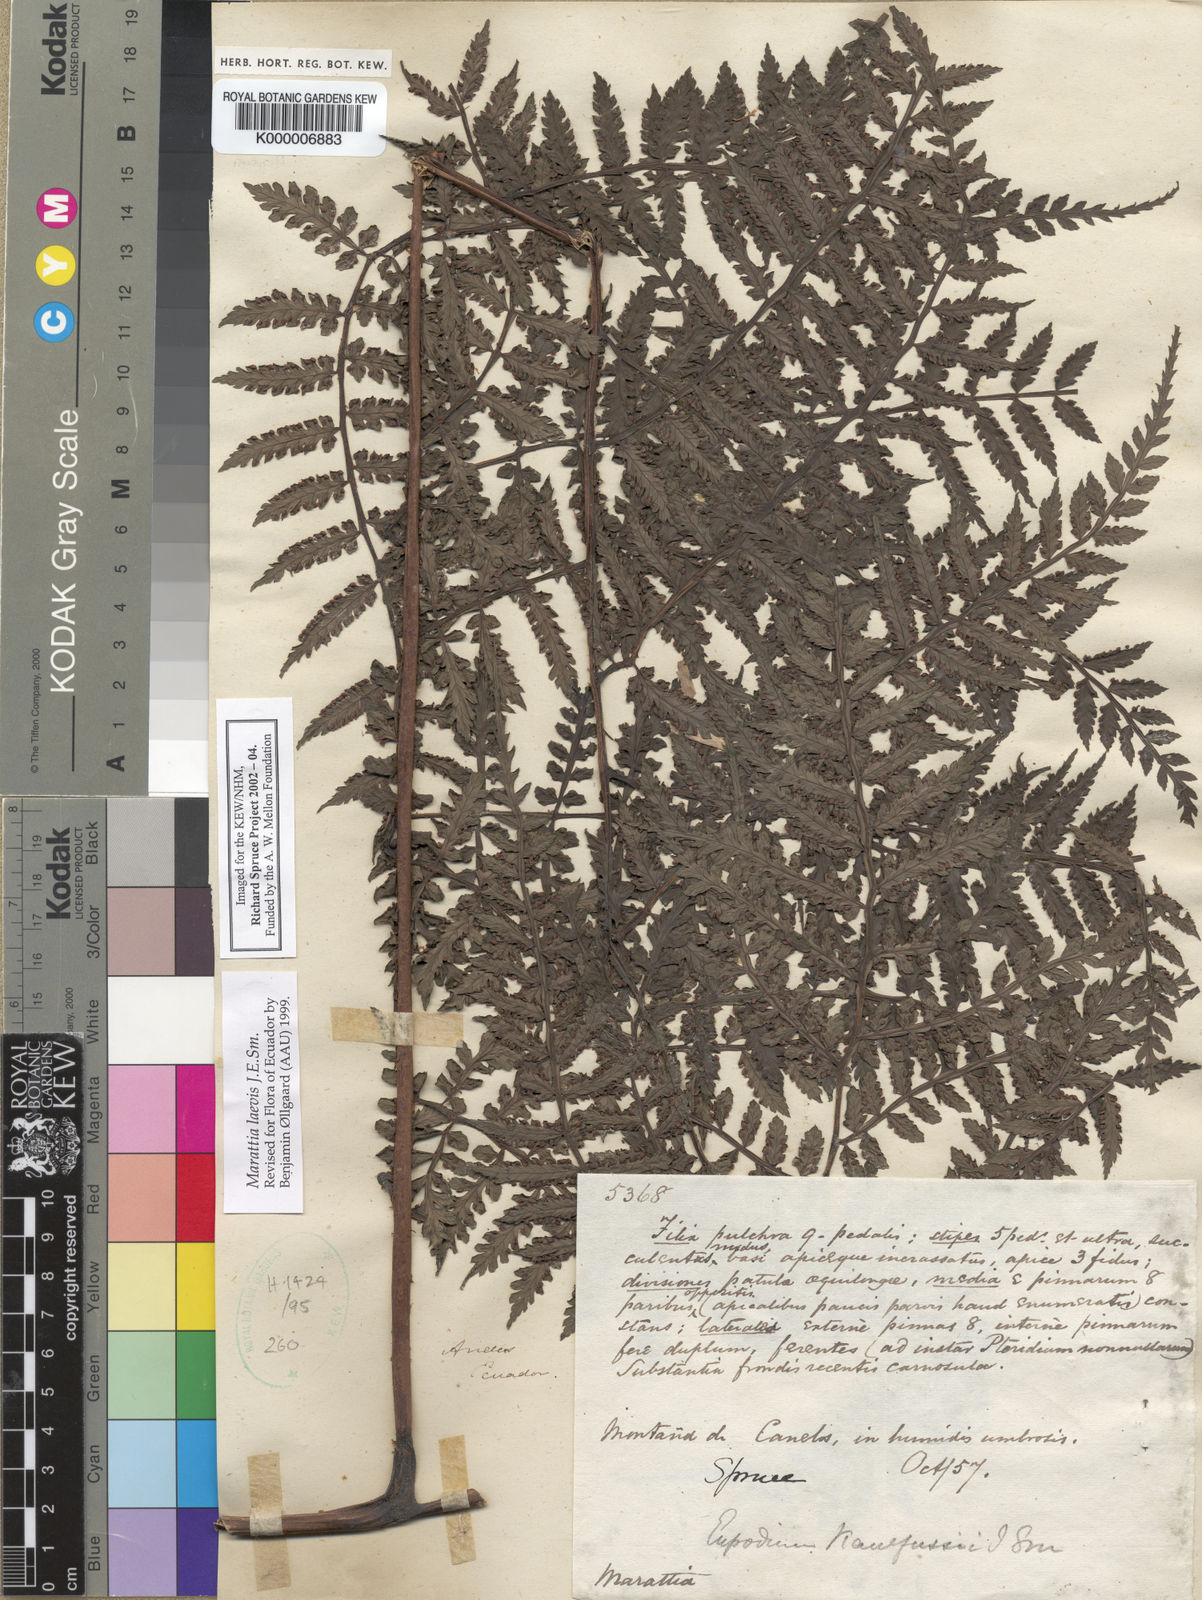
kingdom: Plantae
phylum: Tracheophyta
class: Polypodiopsida
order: Marattiales
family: Marattiaceae
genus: Eupodium
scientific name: Eupodium laeve
